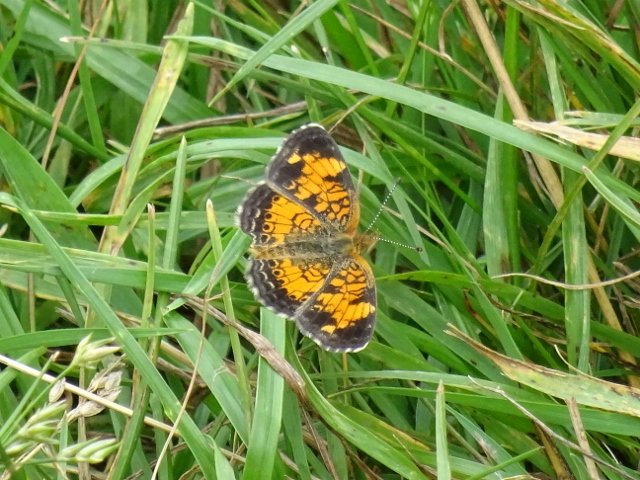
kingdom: Animalia
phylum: Arthropoda
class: Insecta
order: Lepidoptera
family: Nymphalidae
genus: Phyciodes
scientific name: Phyciodes tharos
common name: Pearl Crescent
